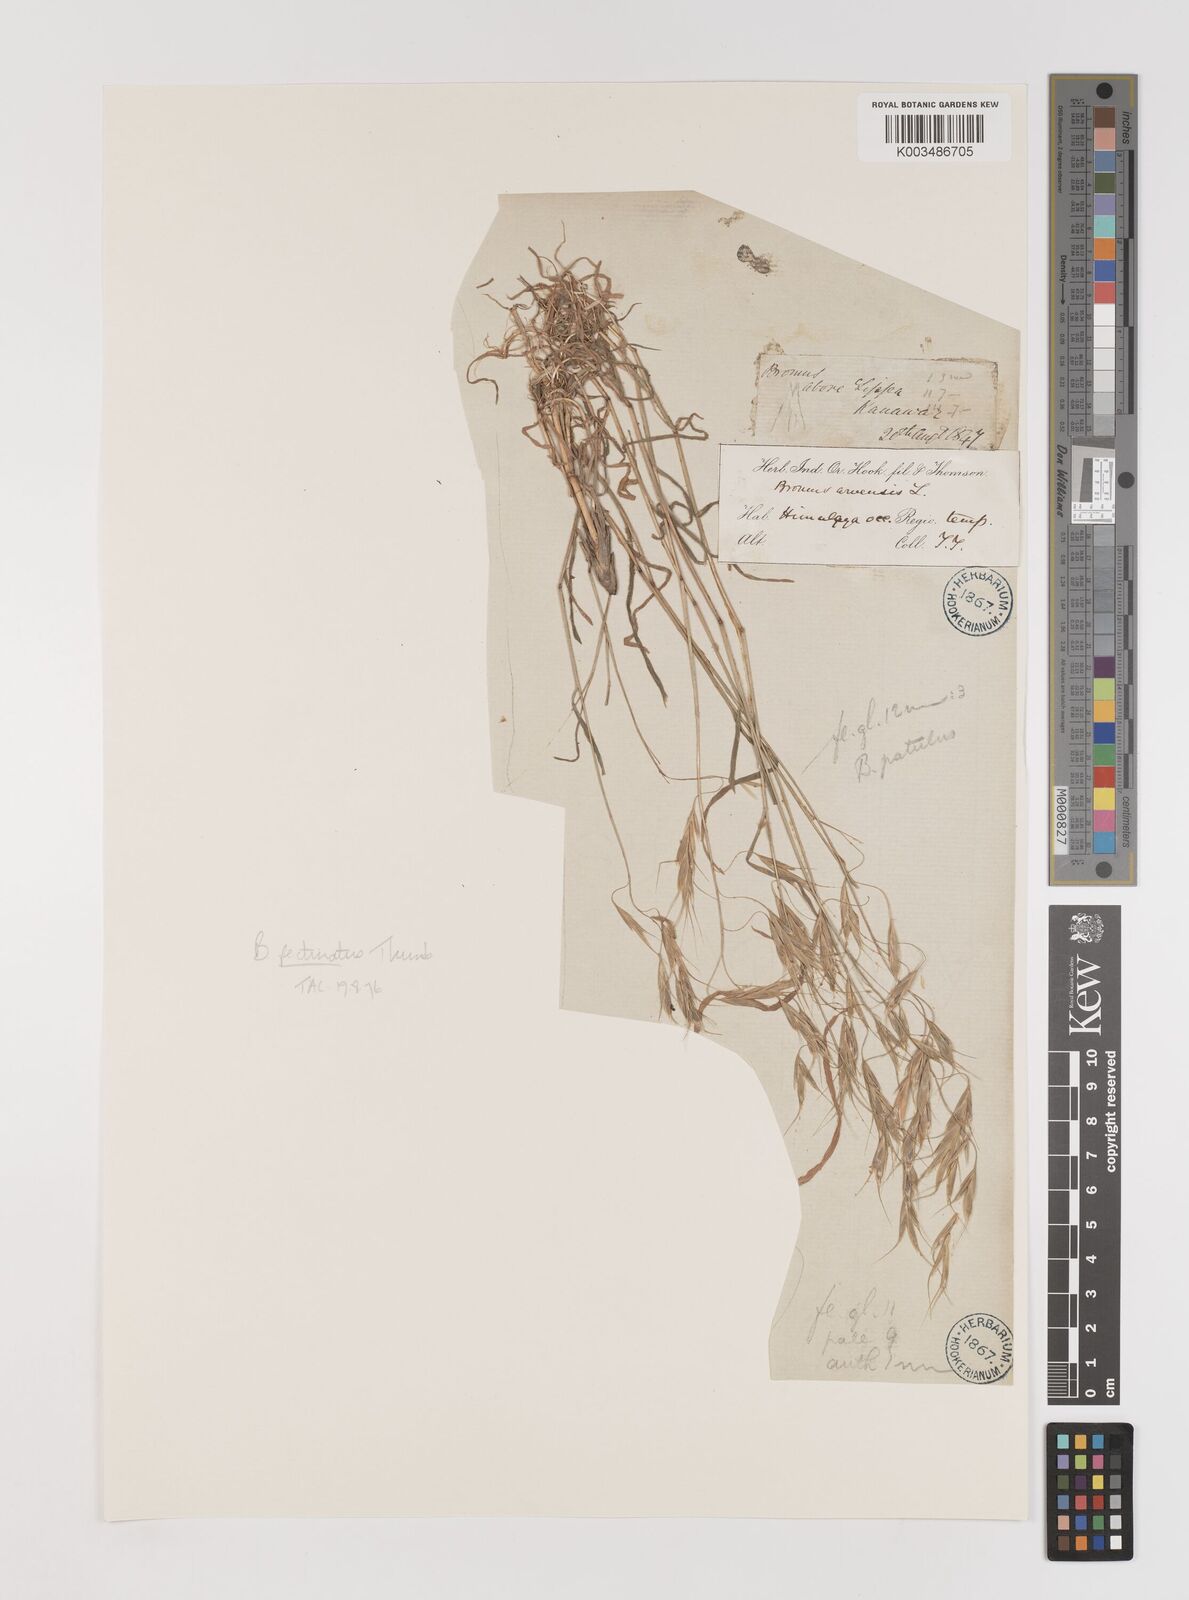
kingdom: Plantae
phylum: Tracheophyta
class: Liliopsida
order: Poales
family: Poaceae
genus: Bromus
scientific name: Bromus pectinatus
